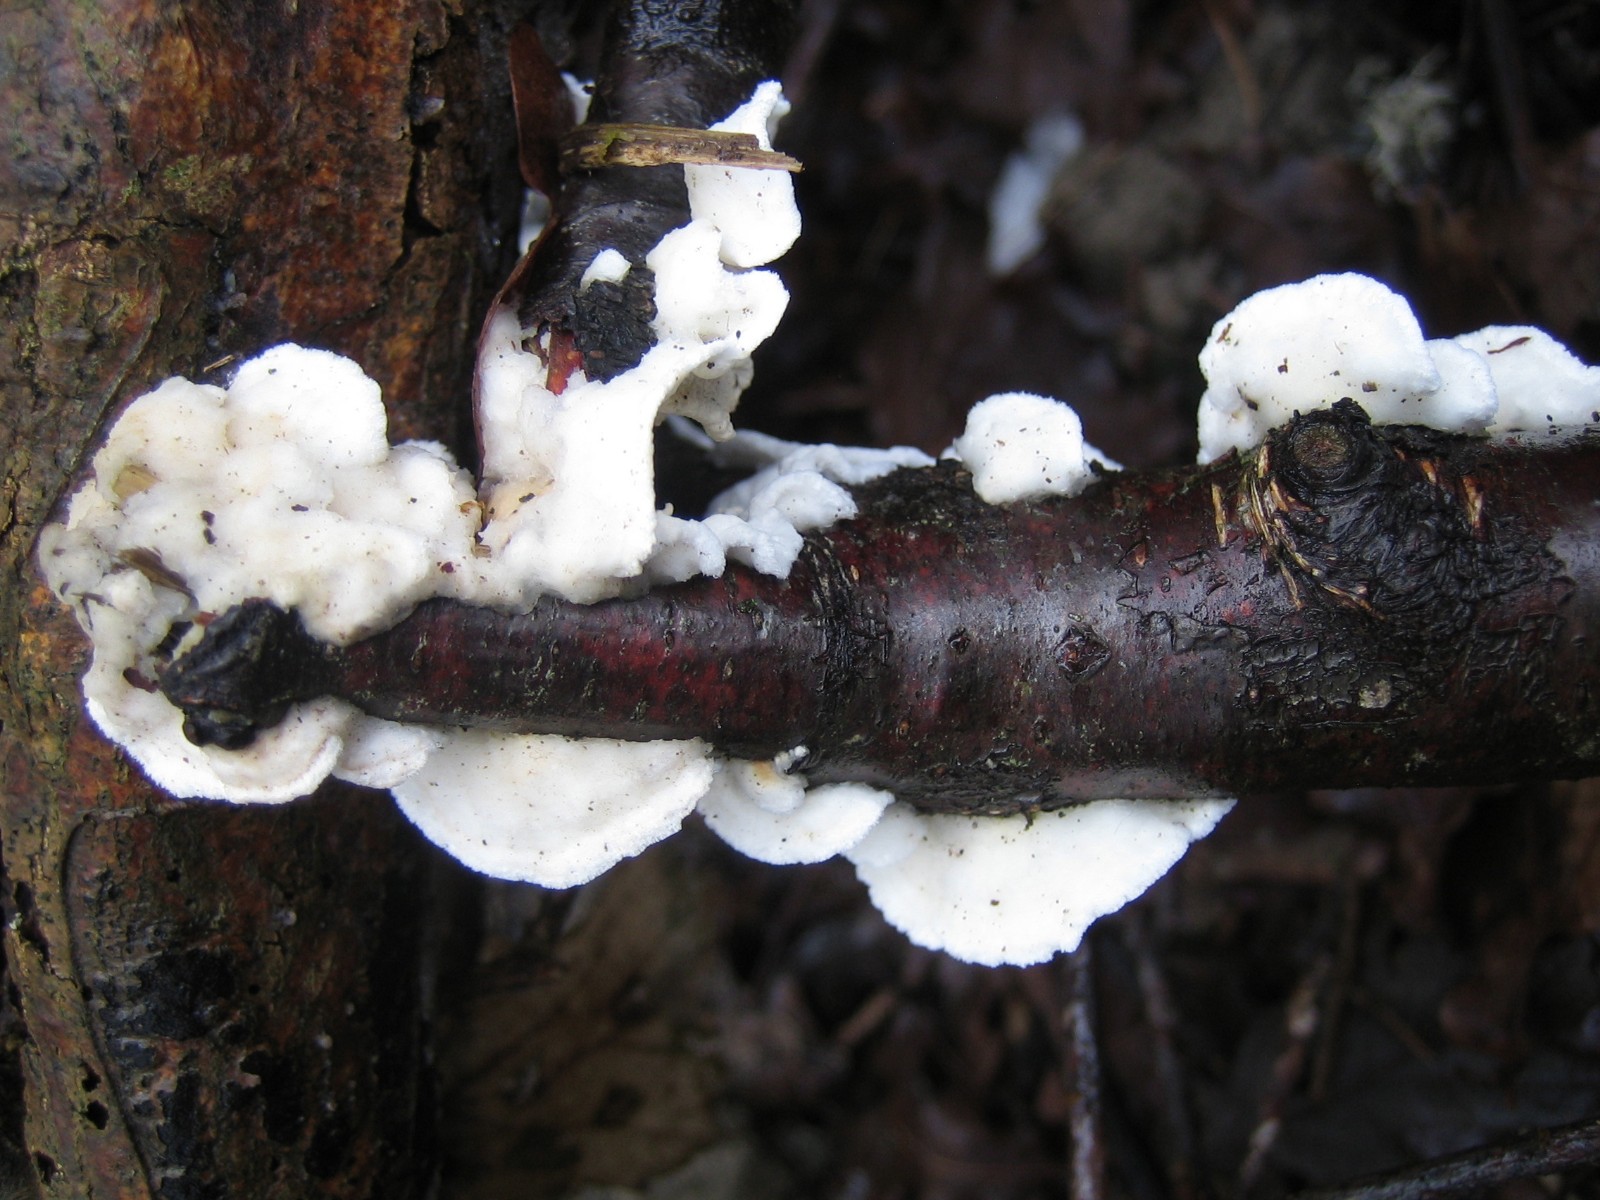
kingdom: Fungi
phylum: Basidiomycota
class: Agaricomycetes
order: Polyporales
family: Irpicaceae
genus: Byssomerulius
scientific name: Byssomerulius corium
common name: læder-åresvamp
